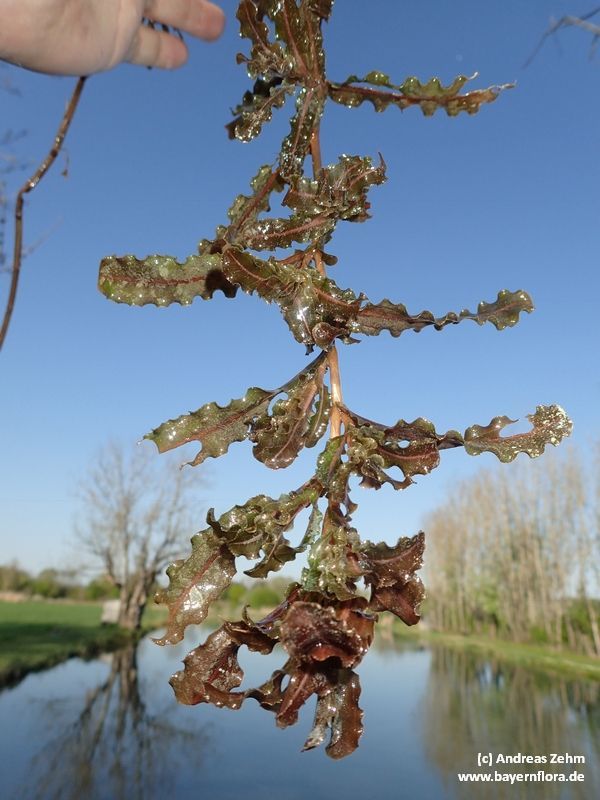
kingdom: Plantae
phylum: Tracheophyta
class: Liliopsida
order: Alismatales
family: Potamogetonaceae
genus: Potamogeton
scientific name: Potamogeton crispus
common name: Curled pondweed
